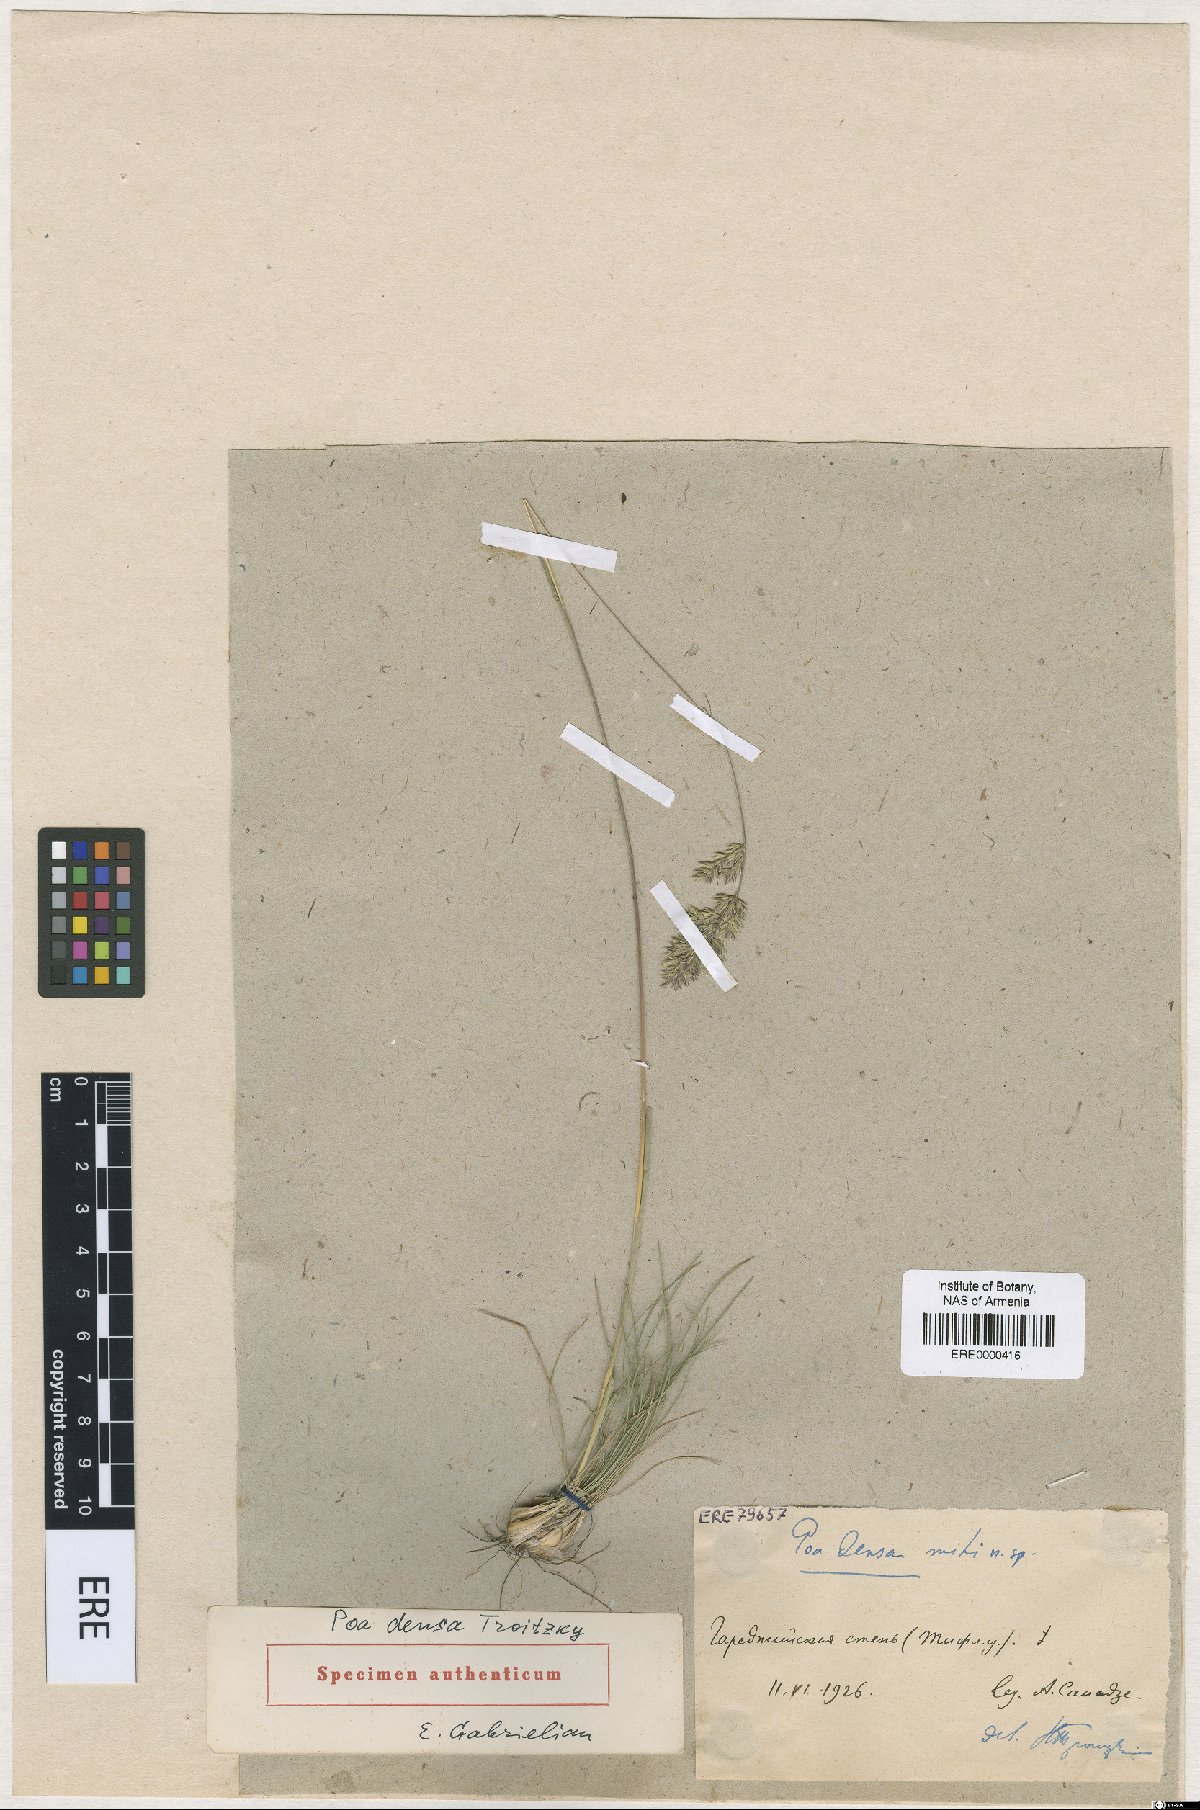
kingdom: Plantae
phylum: Tracheophyta
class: Liliopsida
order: Poales
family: Poaceae
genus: Poa
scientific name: Poa densa
